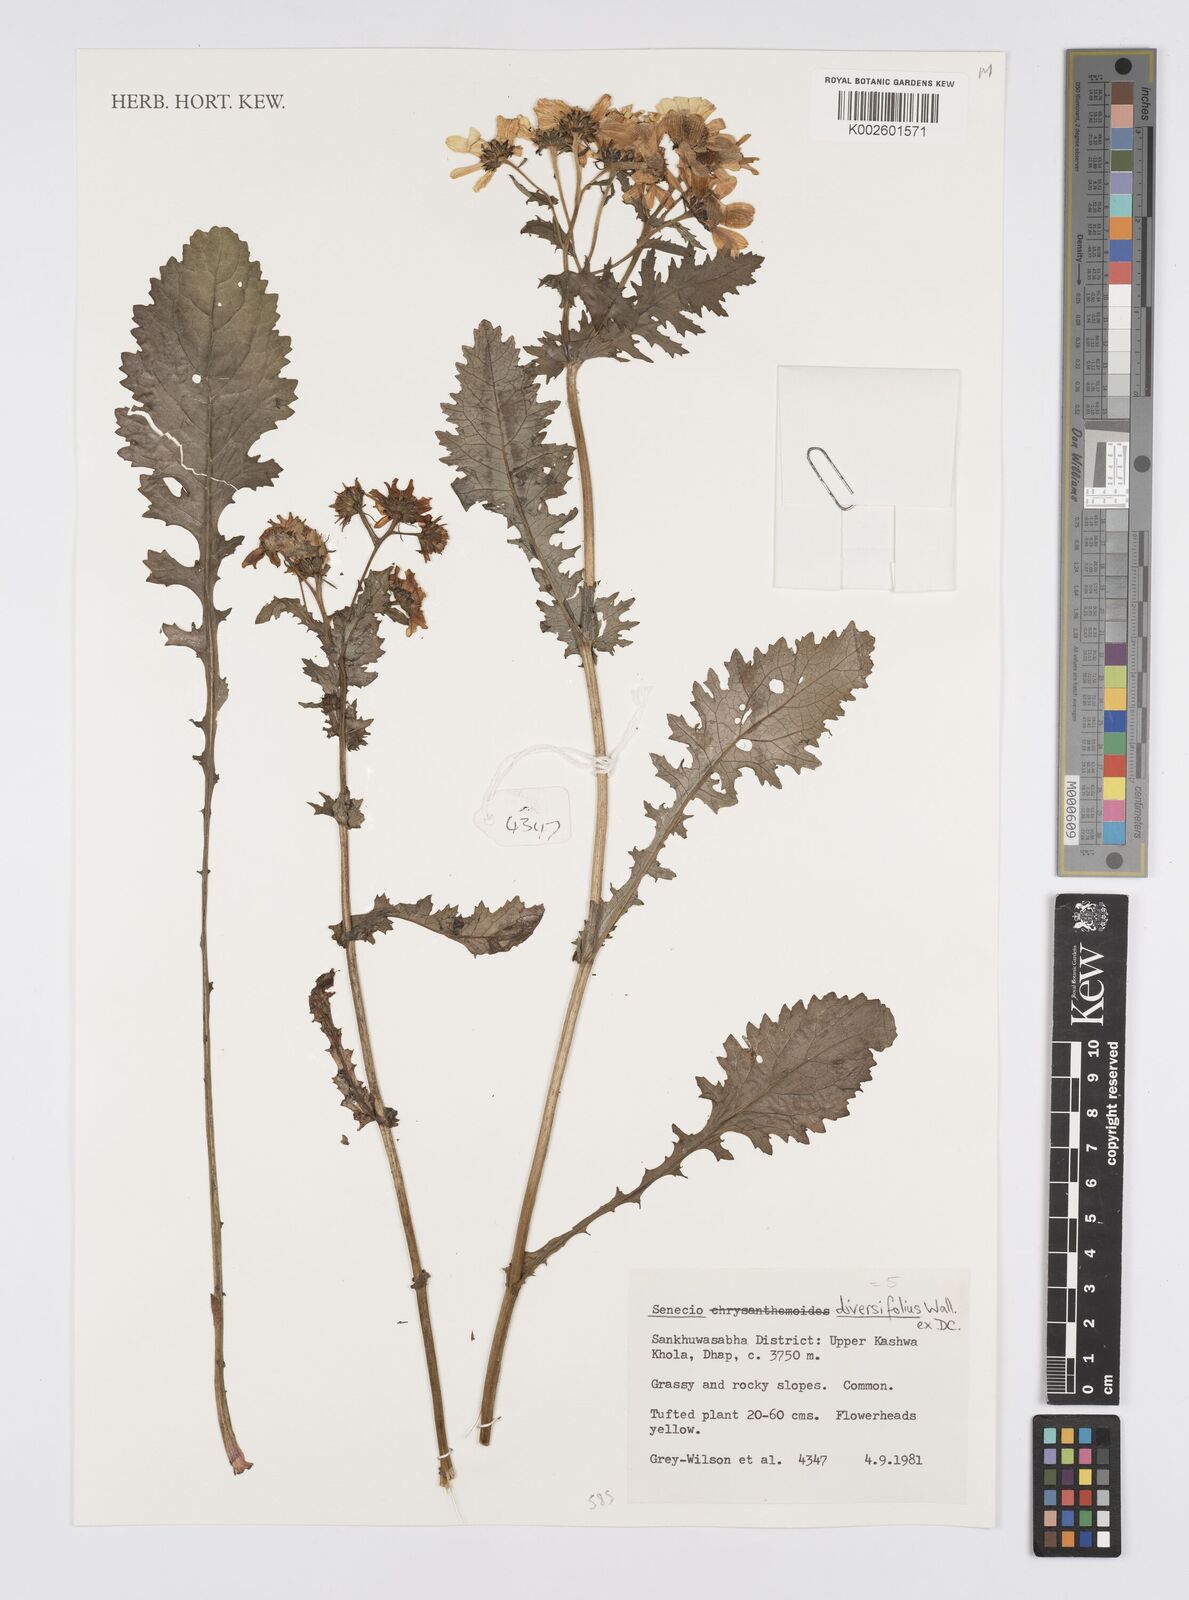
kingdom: Plantae
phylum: Tracheophyta
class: Magnoliopsida
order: Asterales
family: Asteraceae
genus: Jacobaea
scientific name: Jacobaea raphanifolia
